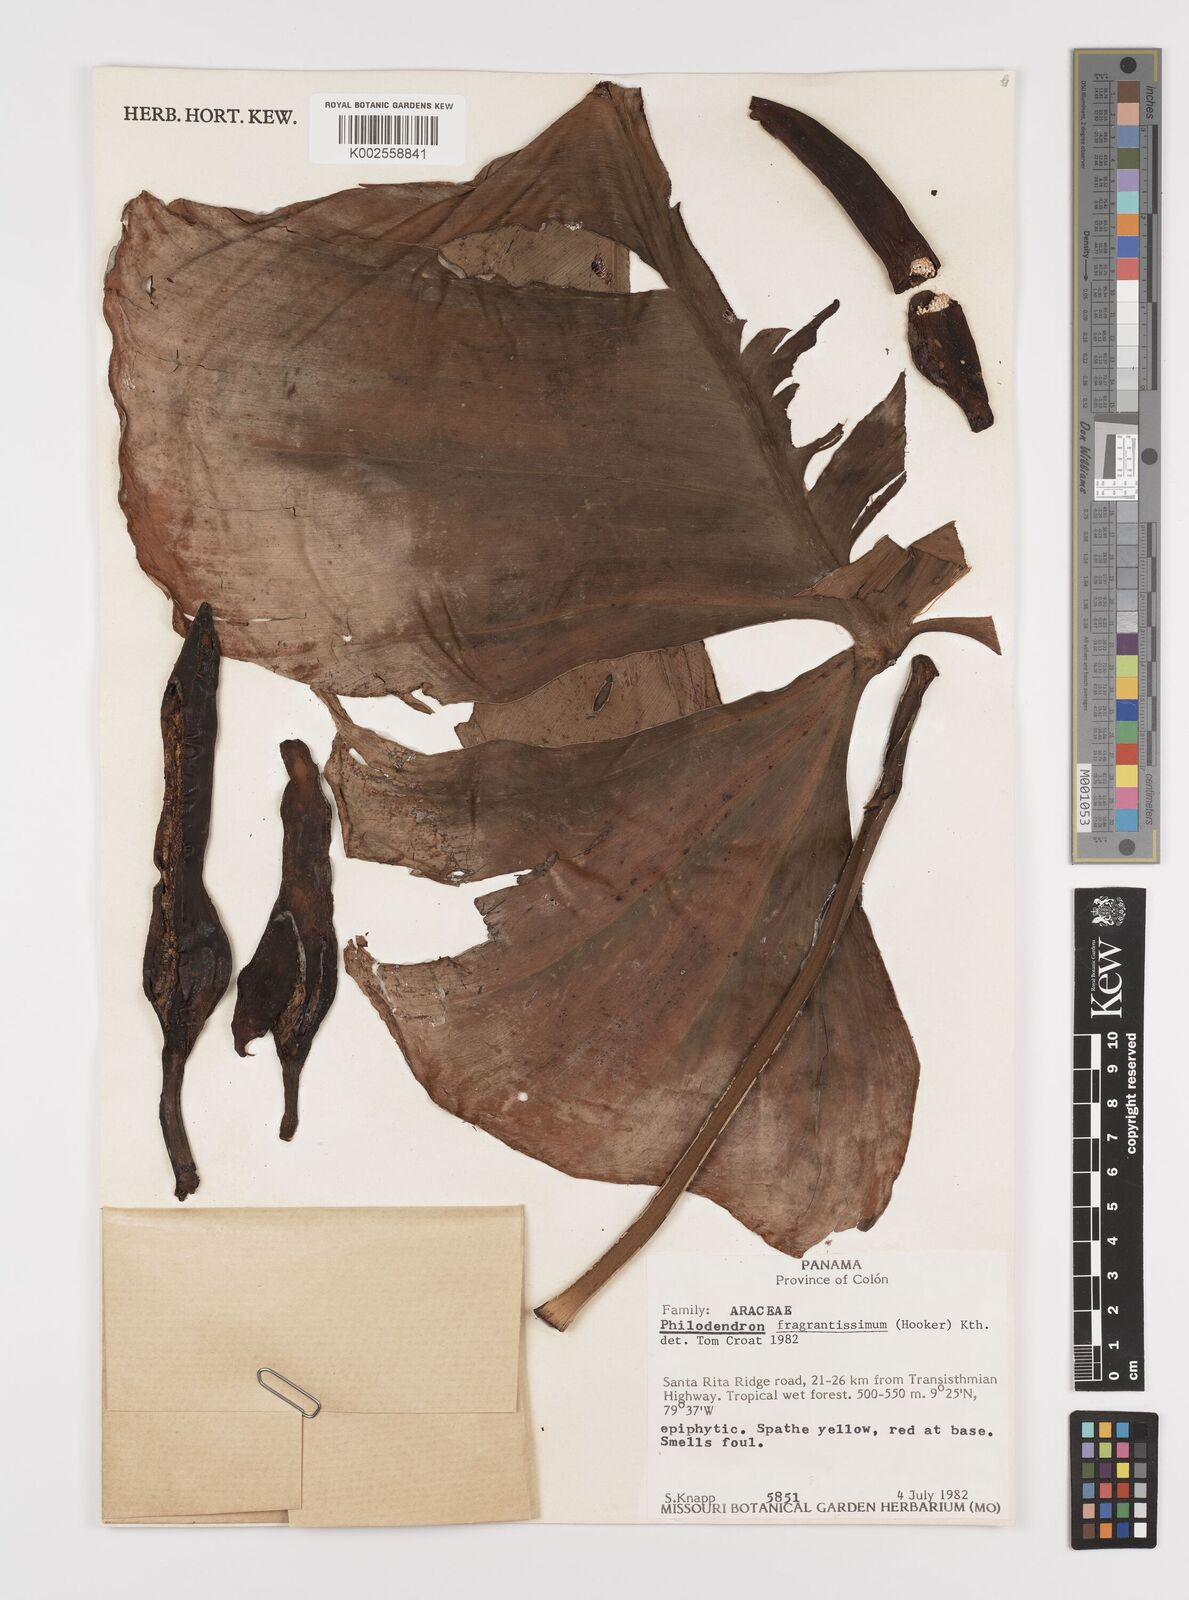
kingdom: Plantae
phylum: Tracheophyta
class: Liliopsida
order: Alismatales
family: Araceae
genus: Philodendron
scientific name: Philodendron fragrantissimum
